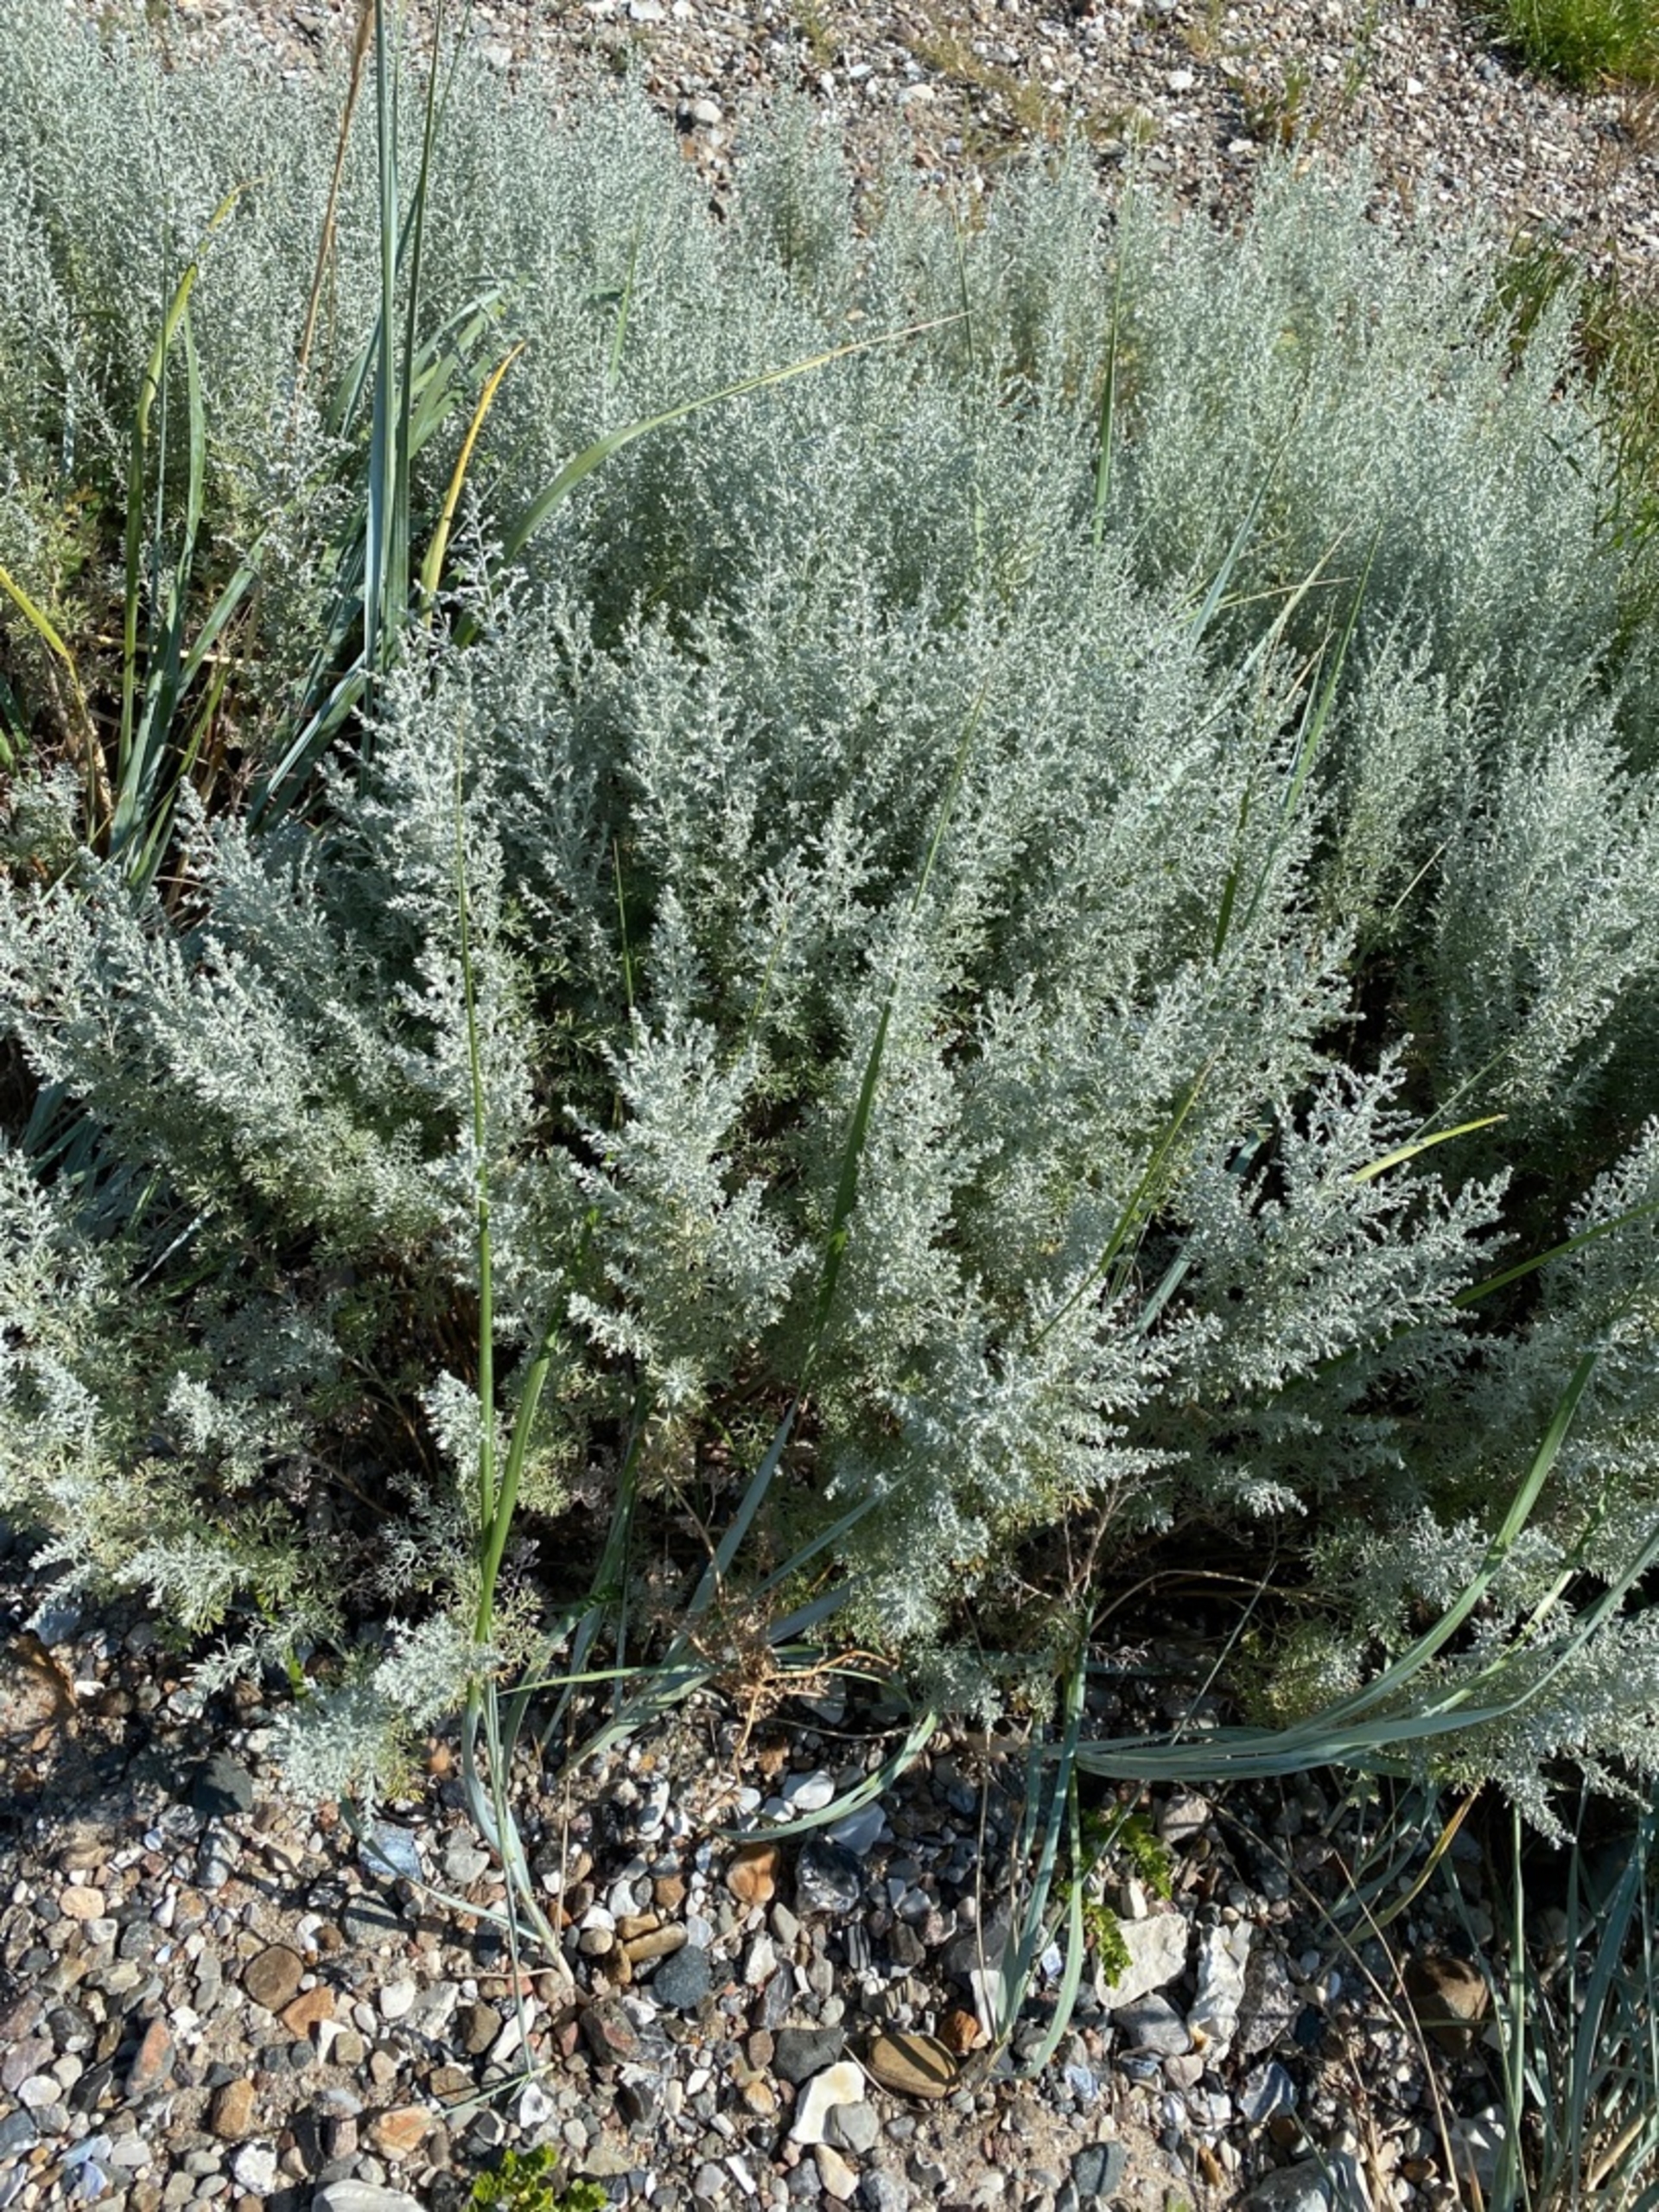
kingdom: Plantae
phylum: Tracheophyta
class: Magnoliopsida
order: Asterales
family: Asteraceae
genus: Artemisia
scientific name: Artemisia maritima
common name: Strandmalurt
